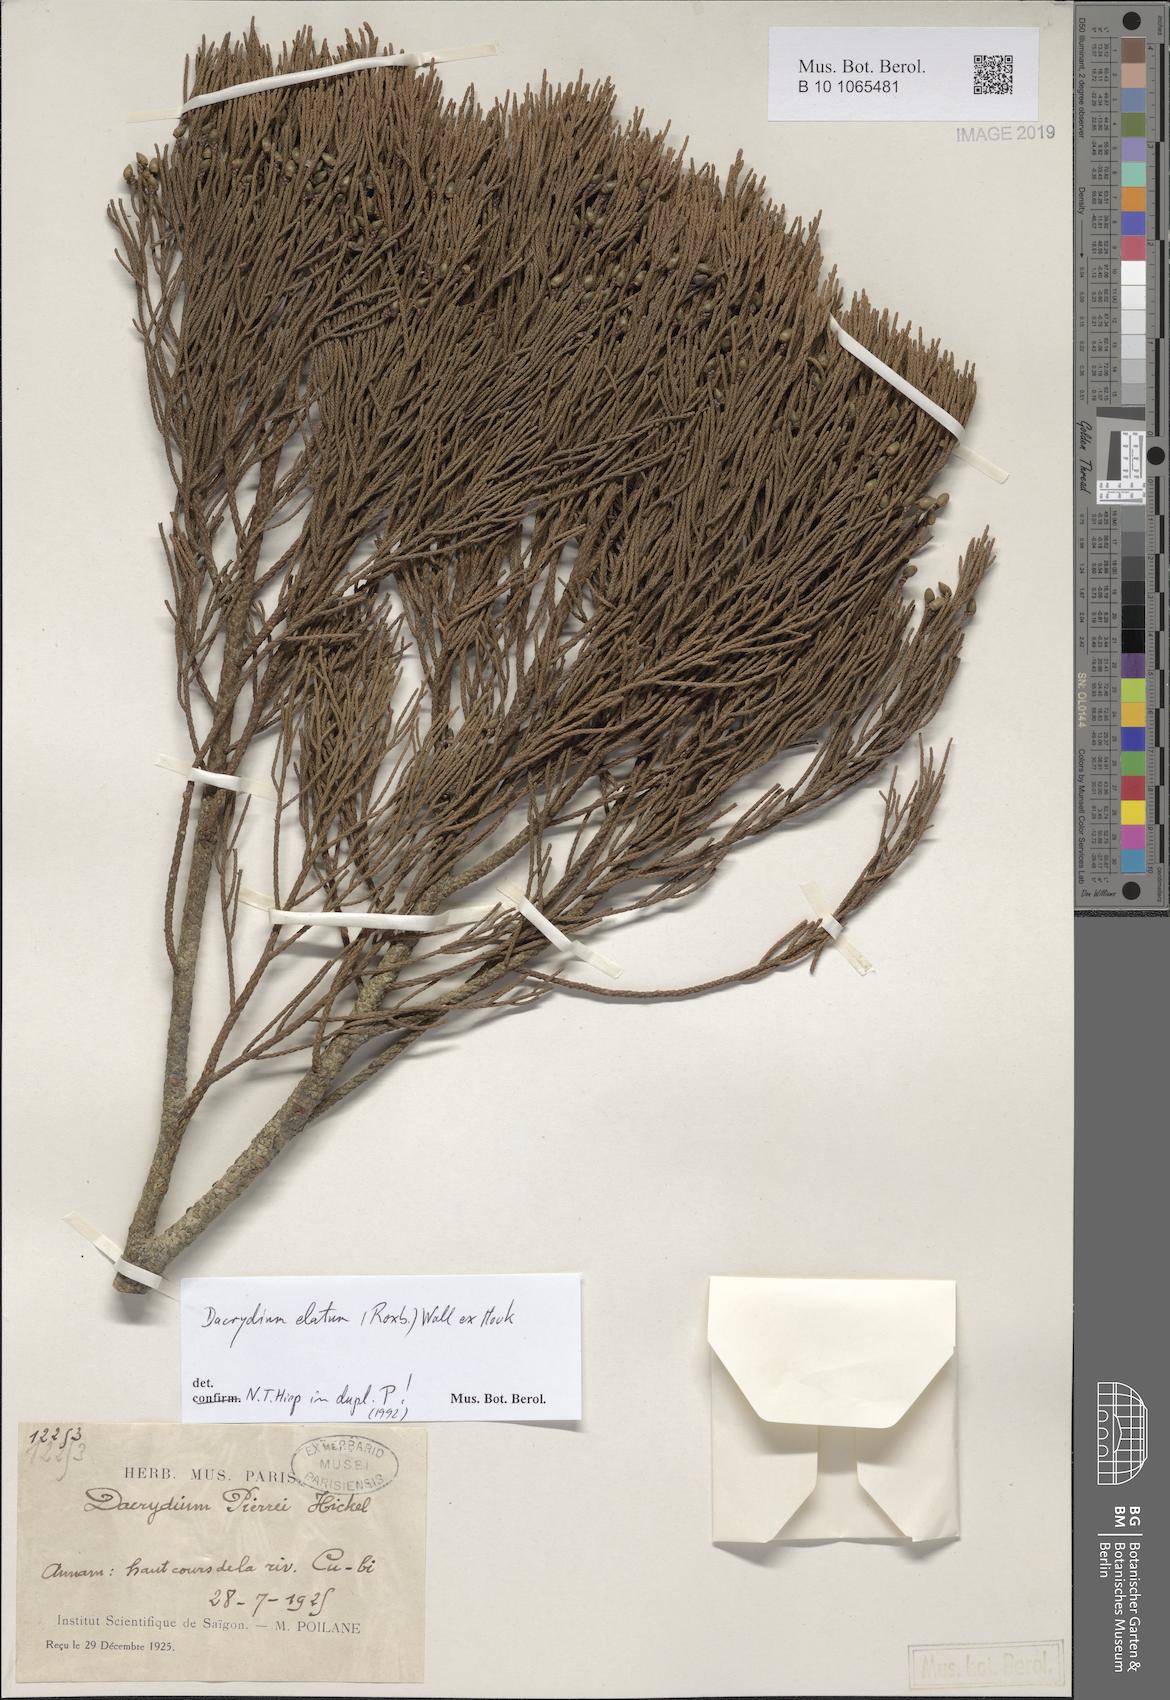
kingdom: Plantae
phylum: Tracheophyta
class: Pinopsida
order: Pinales
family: Podocarpaceae
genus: Dacrydium
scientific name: Dacrydium elatum
